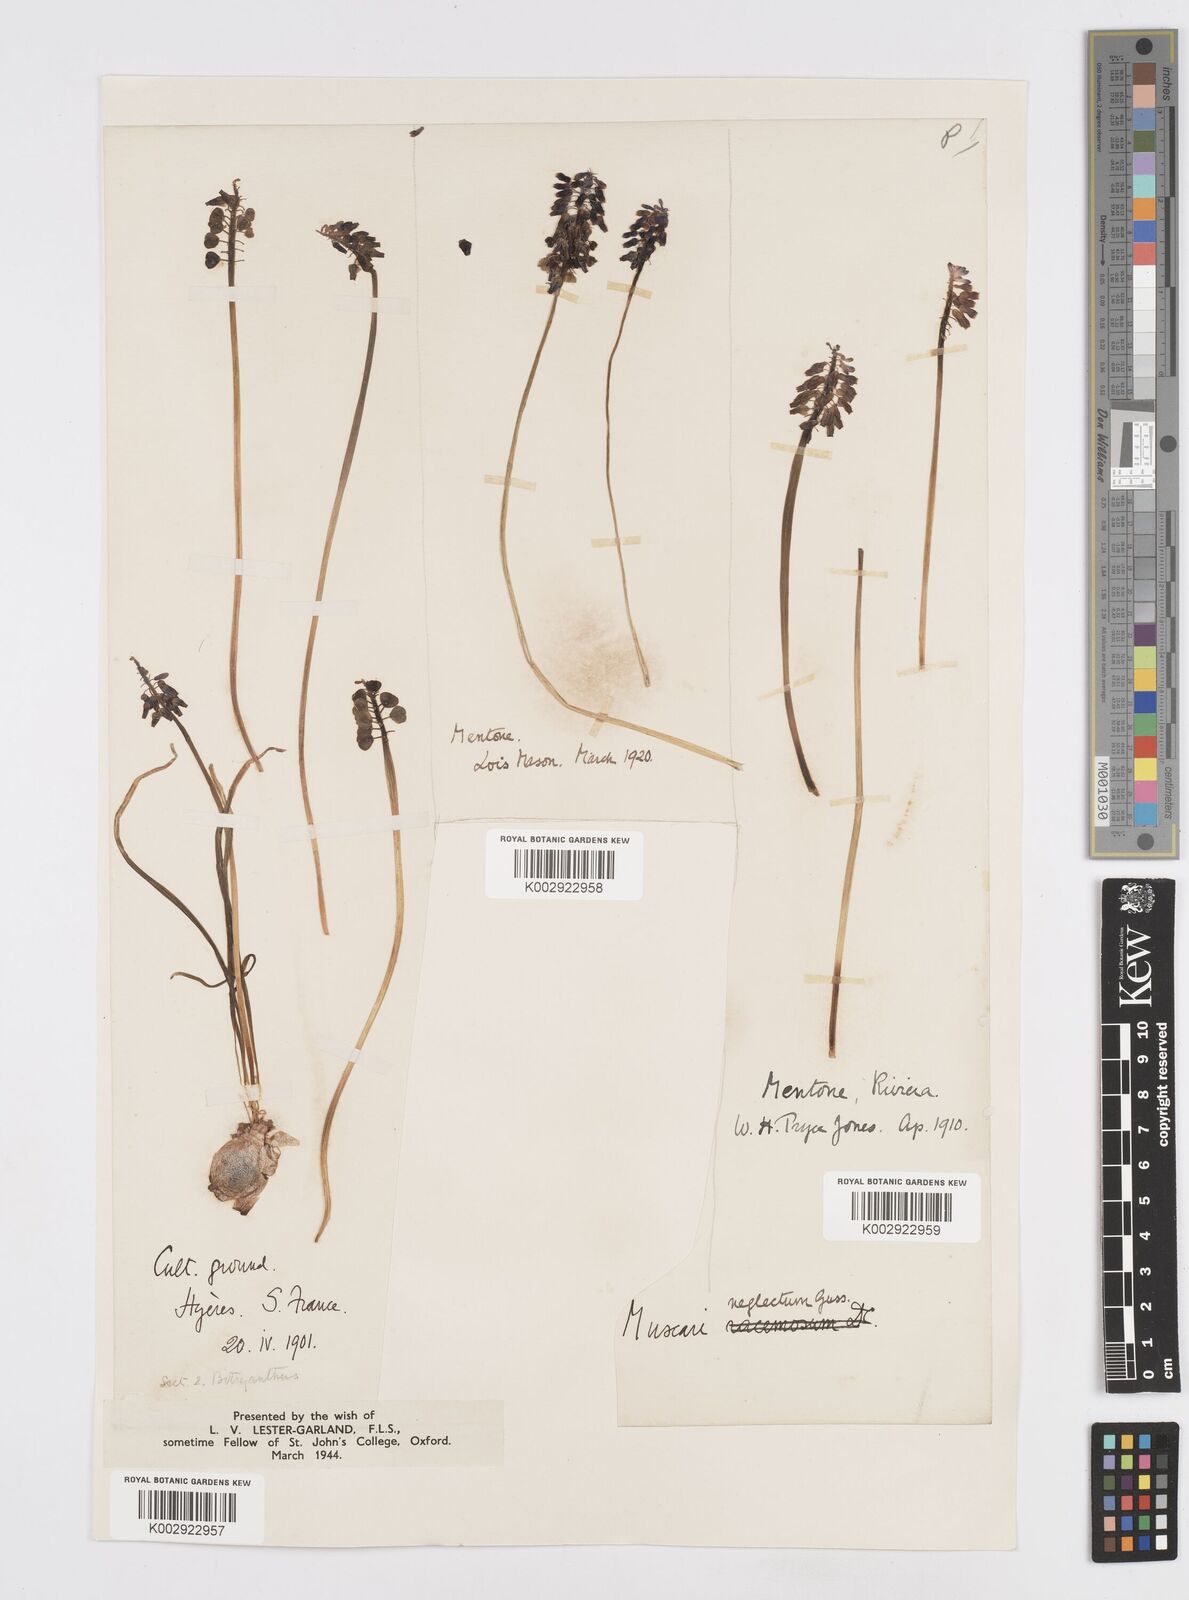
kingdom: Plantae
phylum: Tracheophyta
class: Liliopsida
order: Asparagales
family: Asparagaceae
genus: Muscari
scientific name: Muscari neglectum
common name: Grape-hyacinth
